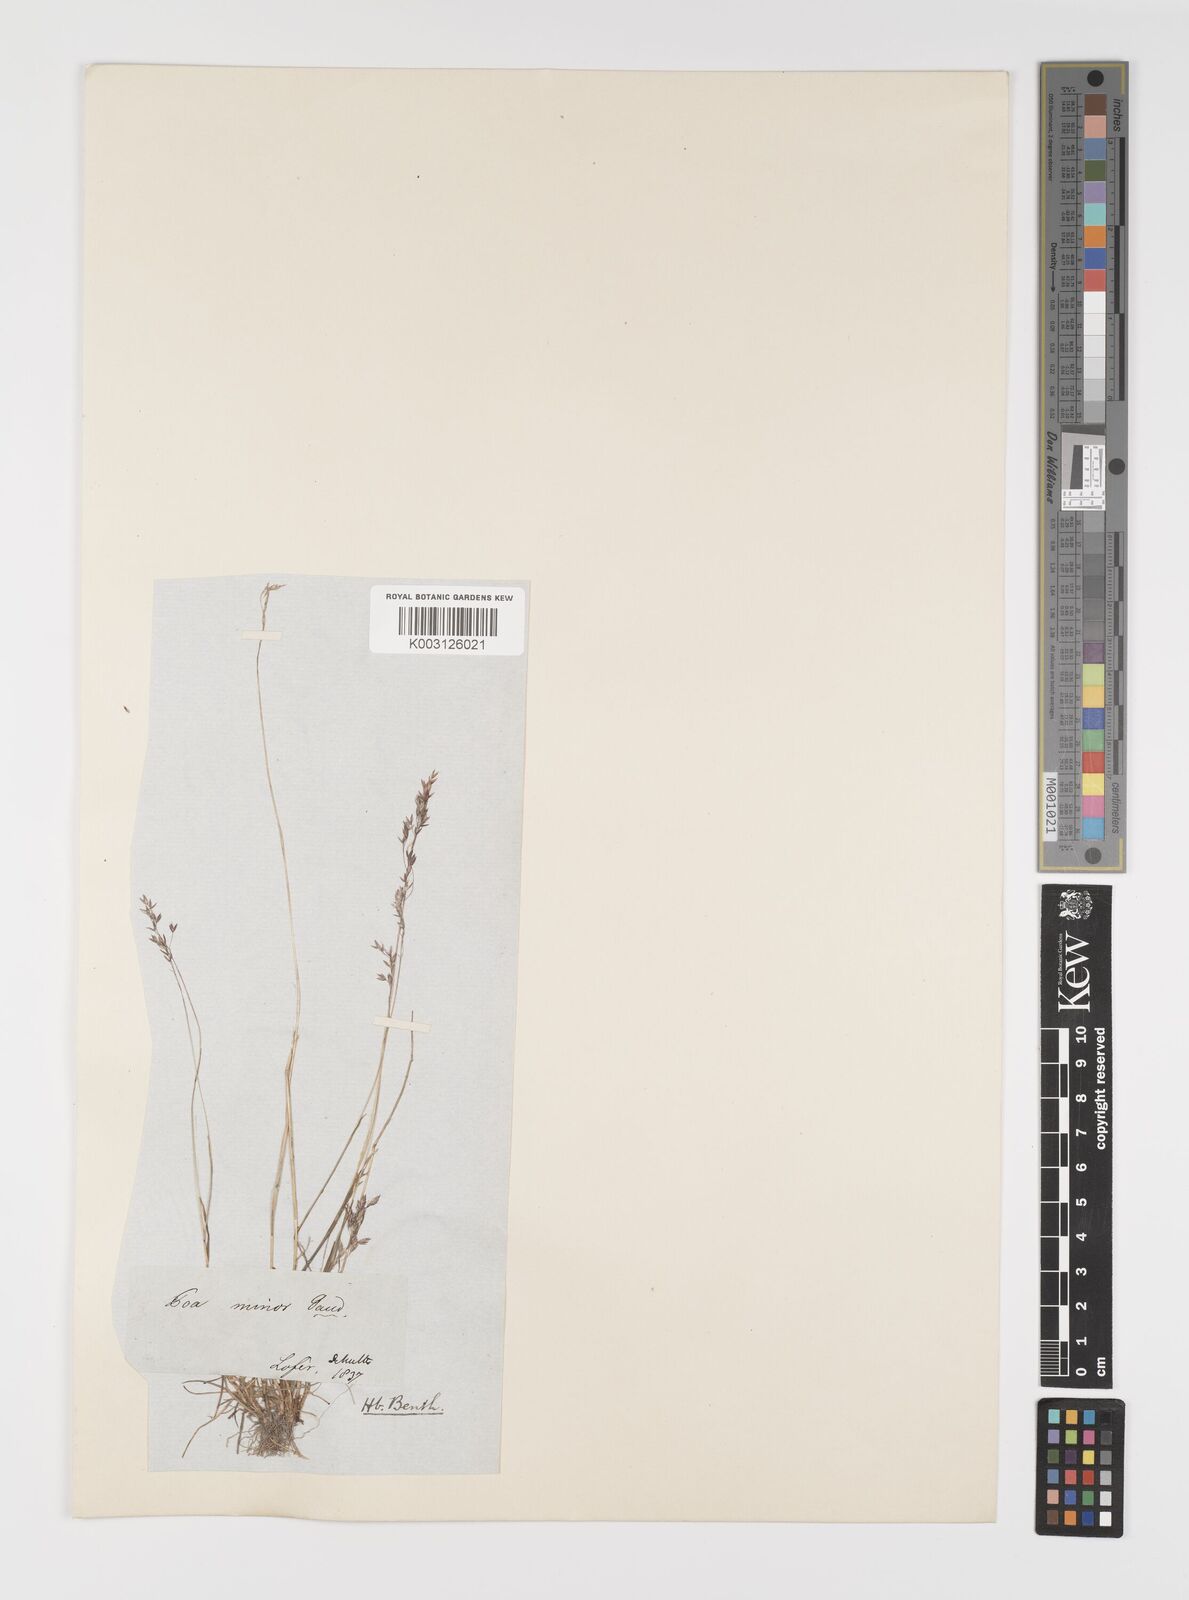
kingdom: Plantae
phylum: Tracheophyta
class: Liliopsida
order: Poales
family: Poaceae
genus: Poa
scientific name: Poa minor
